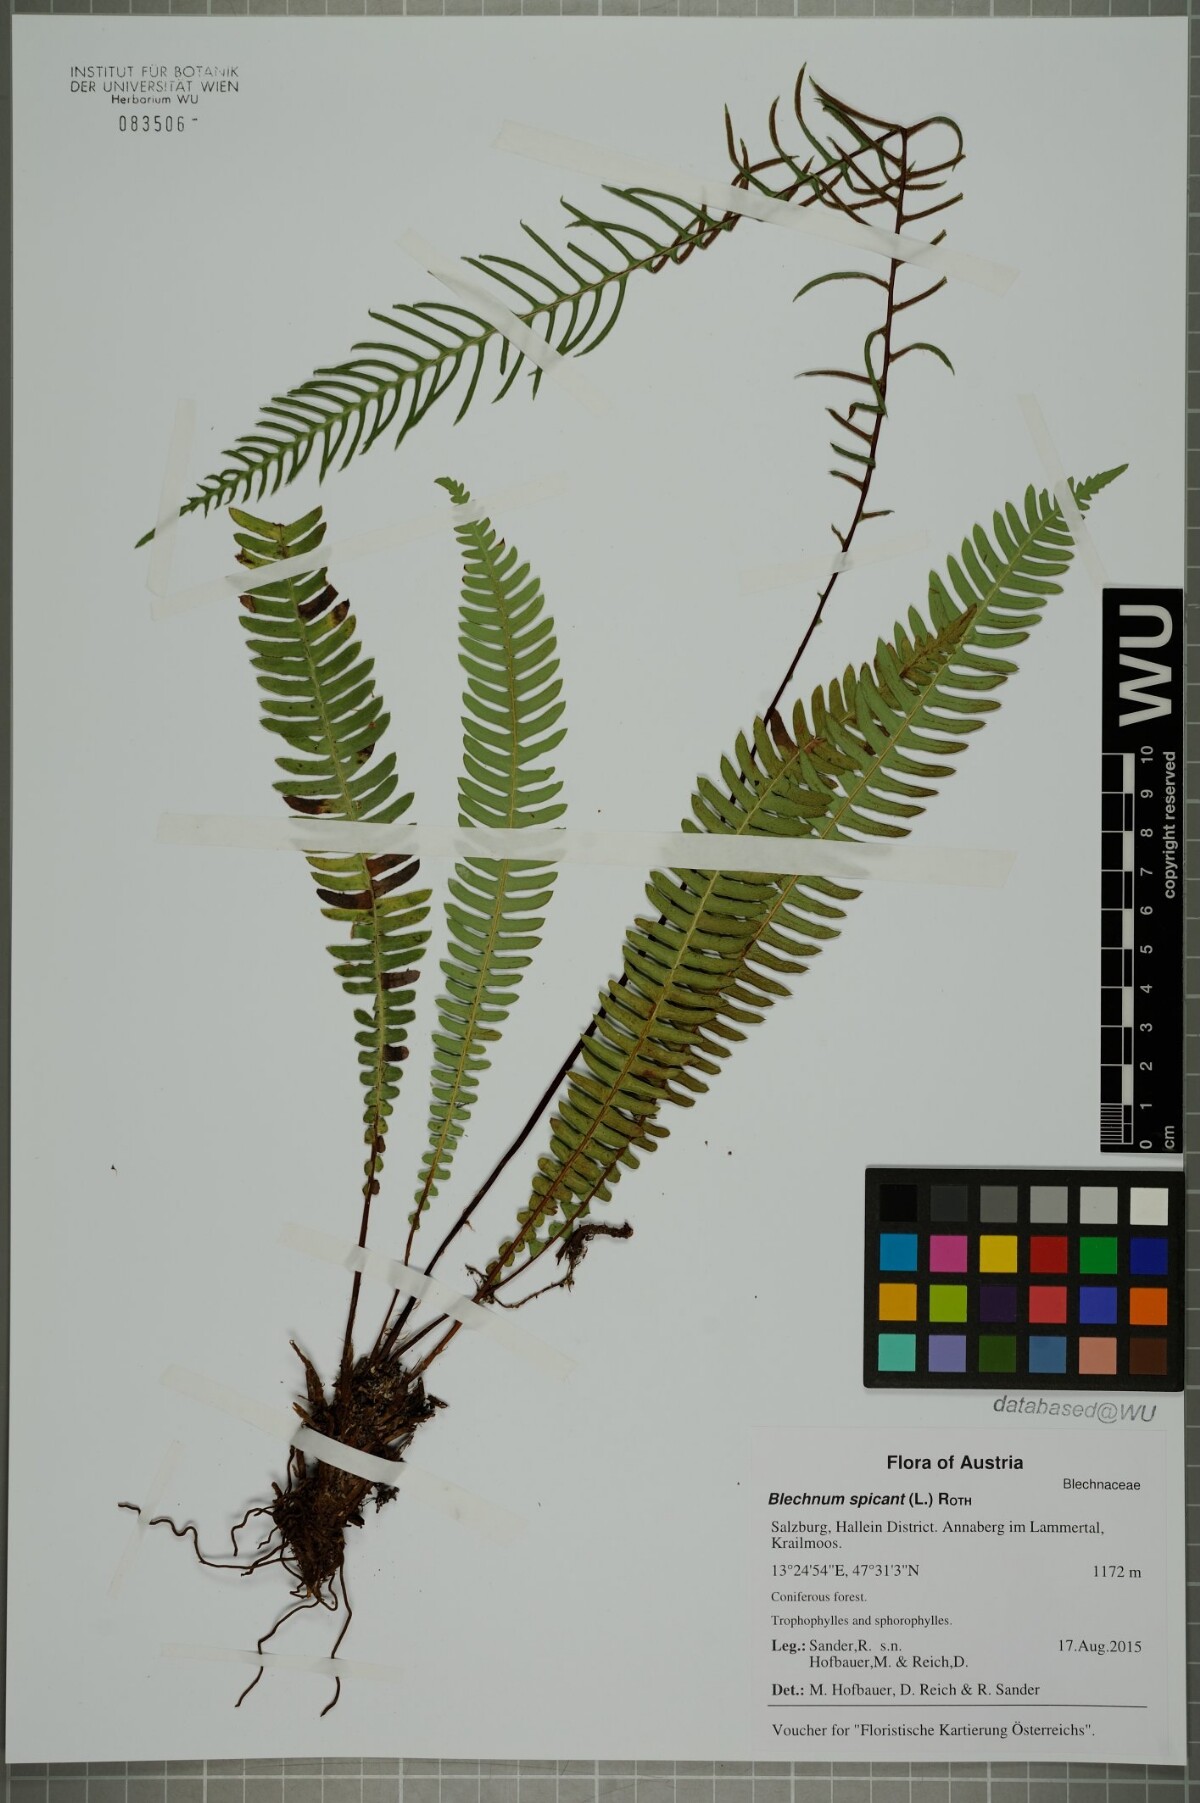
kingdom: Plantae
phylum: Tracheophyta
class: Polypodiopsida
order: Polypodiales
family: Blechnaceae
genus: Struthiopteris
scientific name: Struthiopteris spicant
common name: Deer fern
